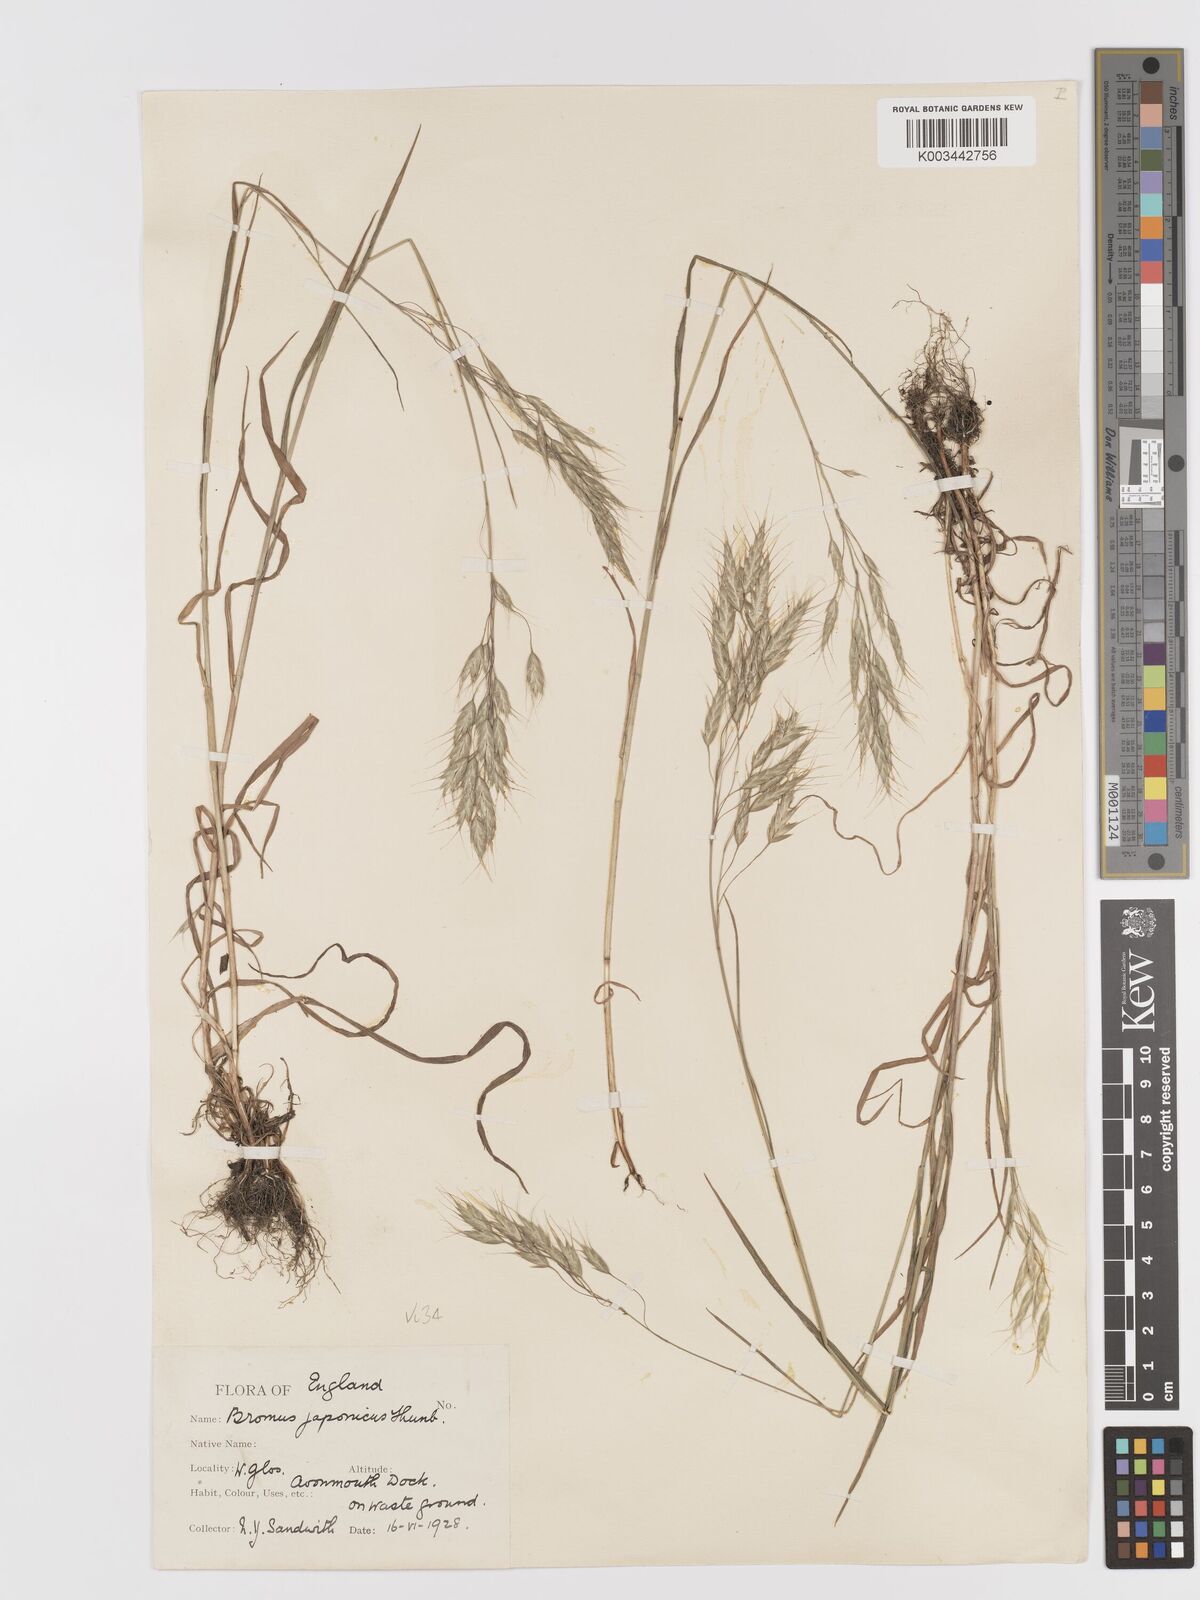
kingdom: Plantae
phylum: Tracheophyta
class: Liliopsida
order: Poales
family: Poaceae
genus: Bromus
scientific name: Bromus japonicus
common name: Japanese brome
